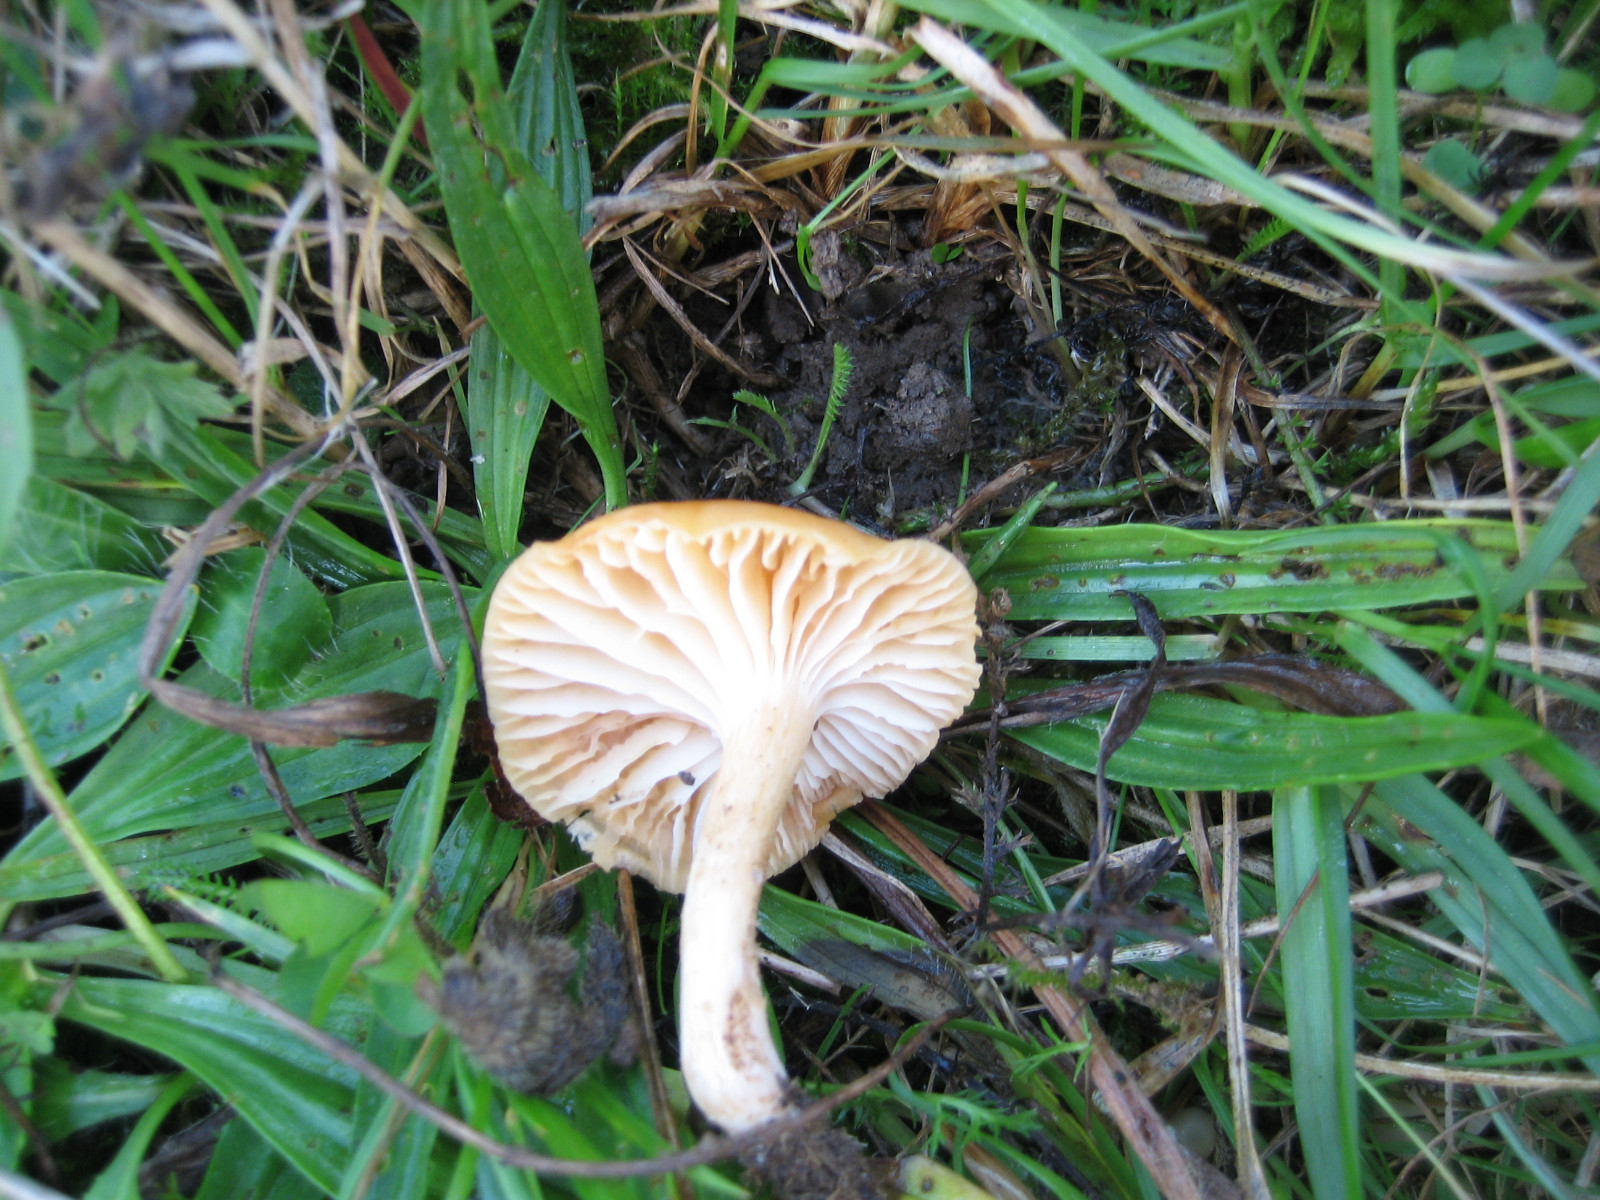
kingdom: Fungi
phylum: Basidiomycota
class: Agaricomycetes
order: Agaricales
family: Hygrophoraceae
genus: Cuphophyllus
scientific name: Cuphophyllus pratensis
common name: eng-vokshat
